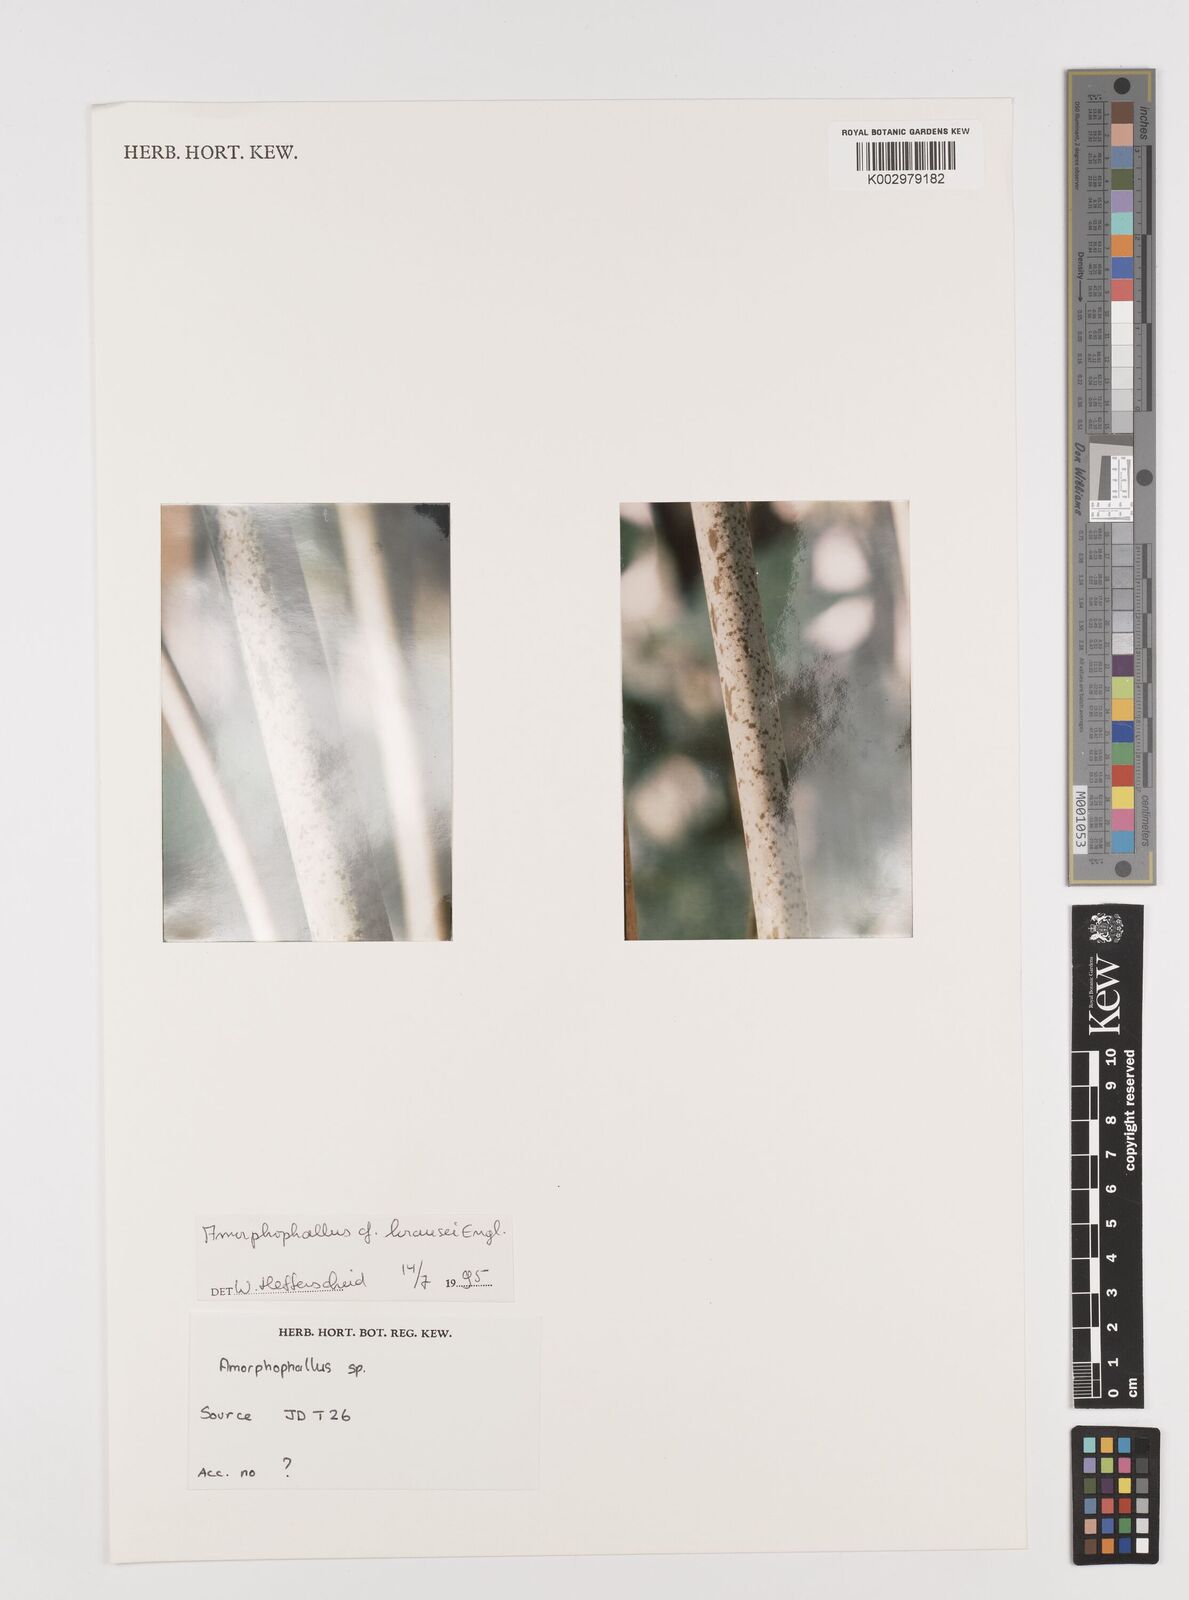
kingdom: Plantae
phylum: Tracheophyta
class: Liliopsida
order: Alismatales
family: Araceae
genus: Amorphophallus
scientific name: Amorphophallus krausei
